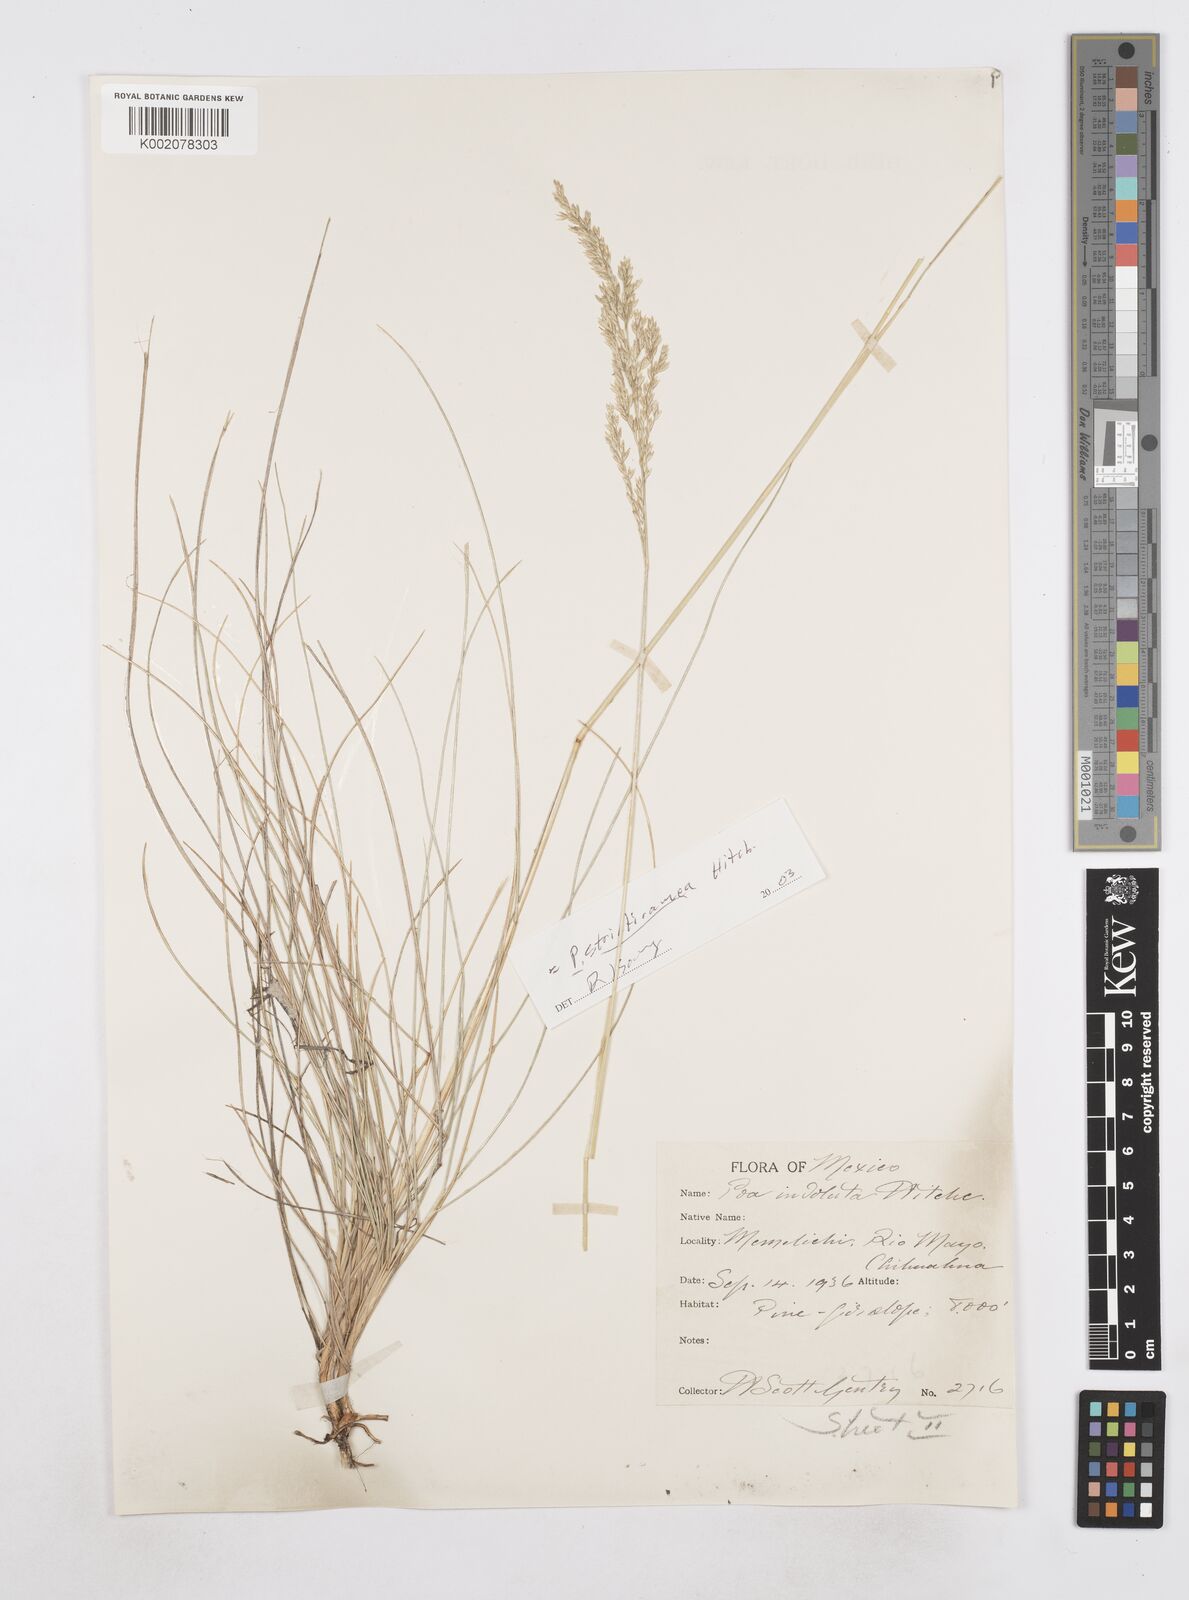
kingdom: Plantae
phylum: Tracheophyta
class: Liliopsida
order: Poales
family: Poaceae
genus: Poa
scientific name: Poa strictiramea
